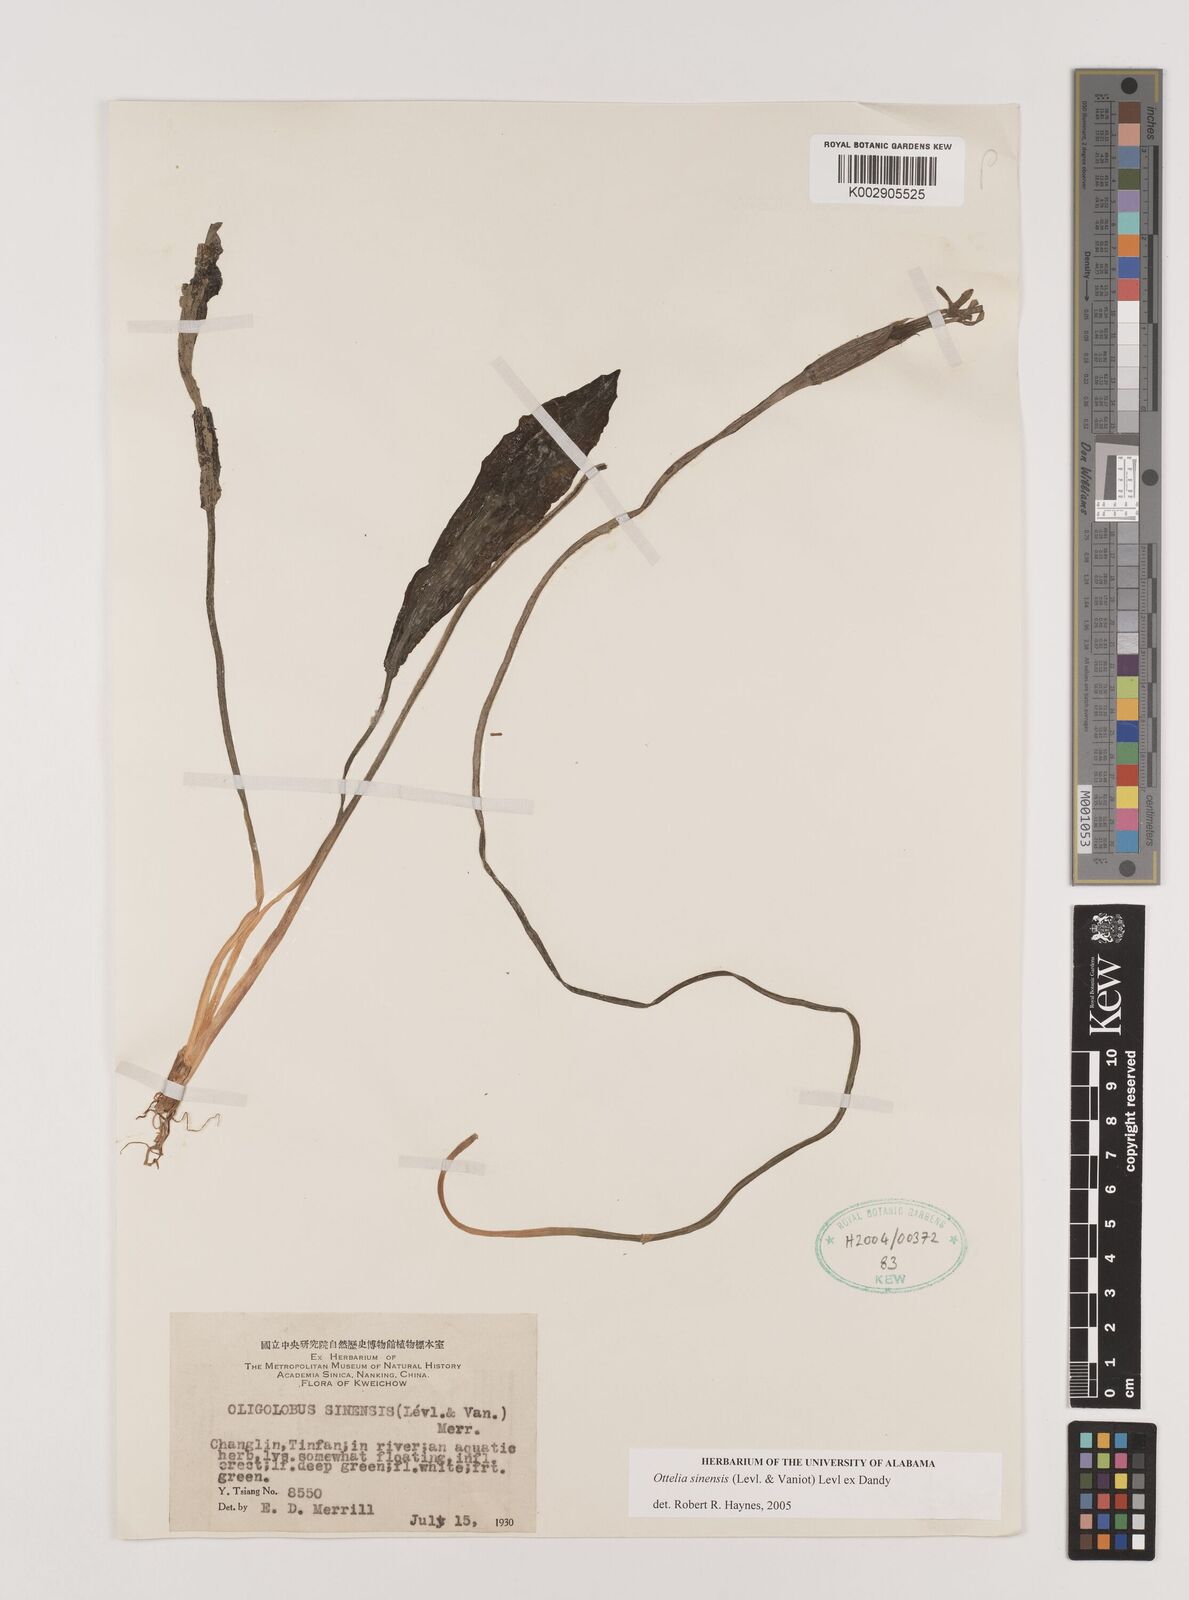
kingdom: Plantae
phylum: Tracheophyta
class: Liliopsida
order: Alismatales
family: Hydrocharitaceae
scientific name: Hydrocharitaceae
